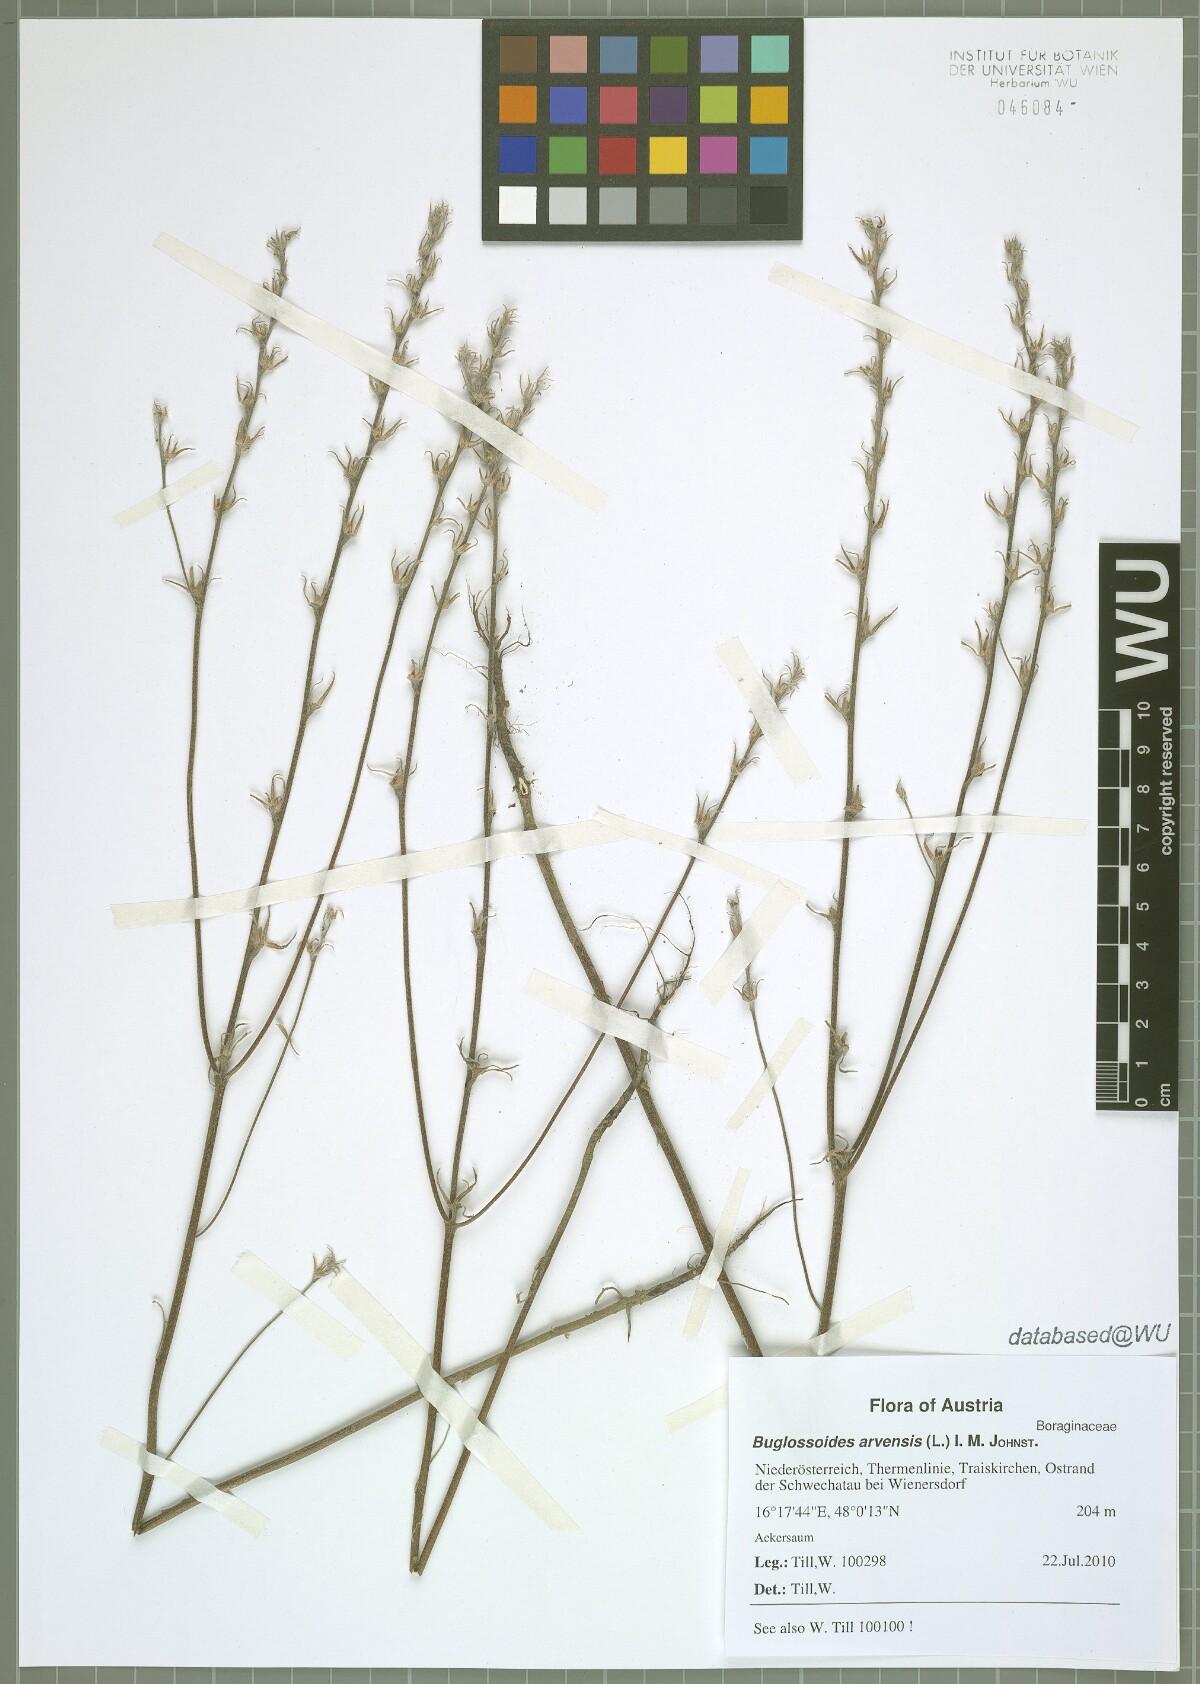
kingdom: Plantae
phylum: Tracheophyta
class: Magnoliopsida
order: Boraginales
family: Boraginaceae
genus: Buglossoides
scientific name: Buglossoides arvensis
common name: Corn gromwell
